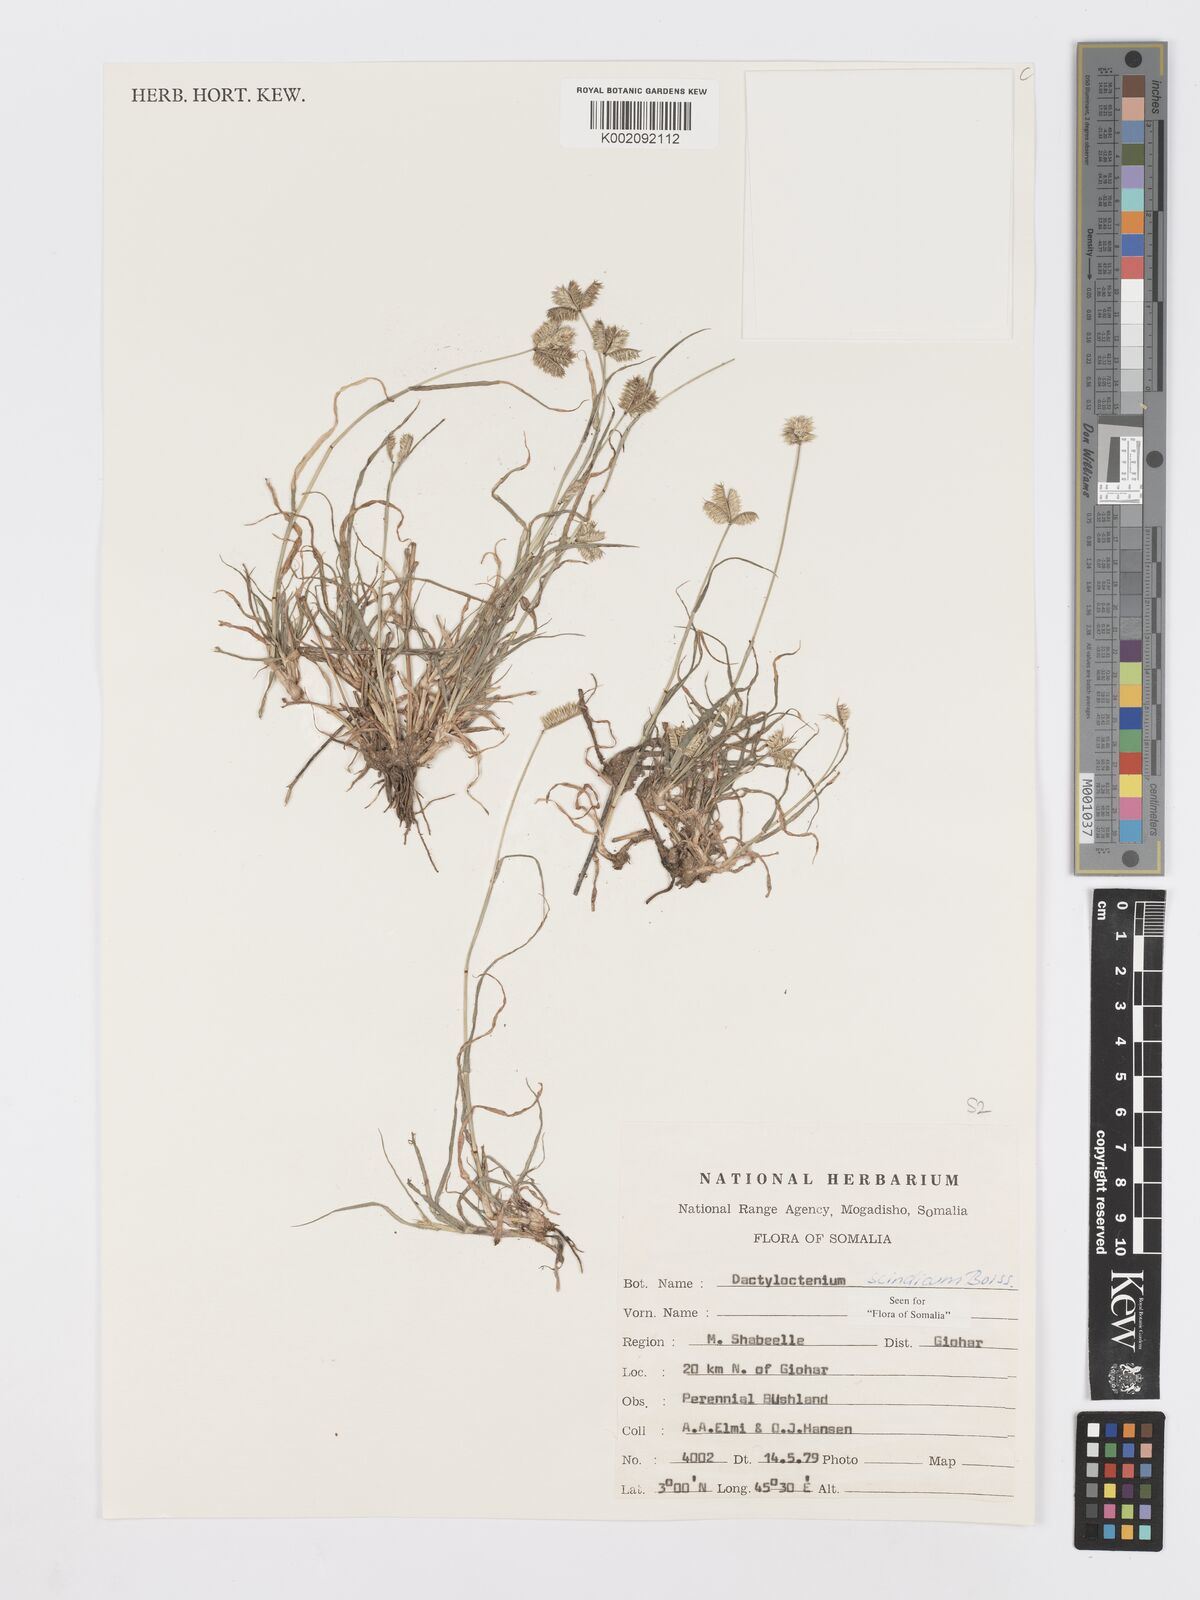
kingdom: Plantae
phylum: Tracheophyta
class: Liliopsida
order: Poales
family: Poaceae
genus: Dactyloctenium
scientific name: Dactyloctenium scindicum
